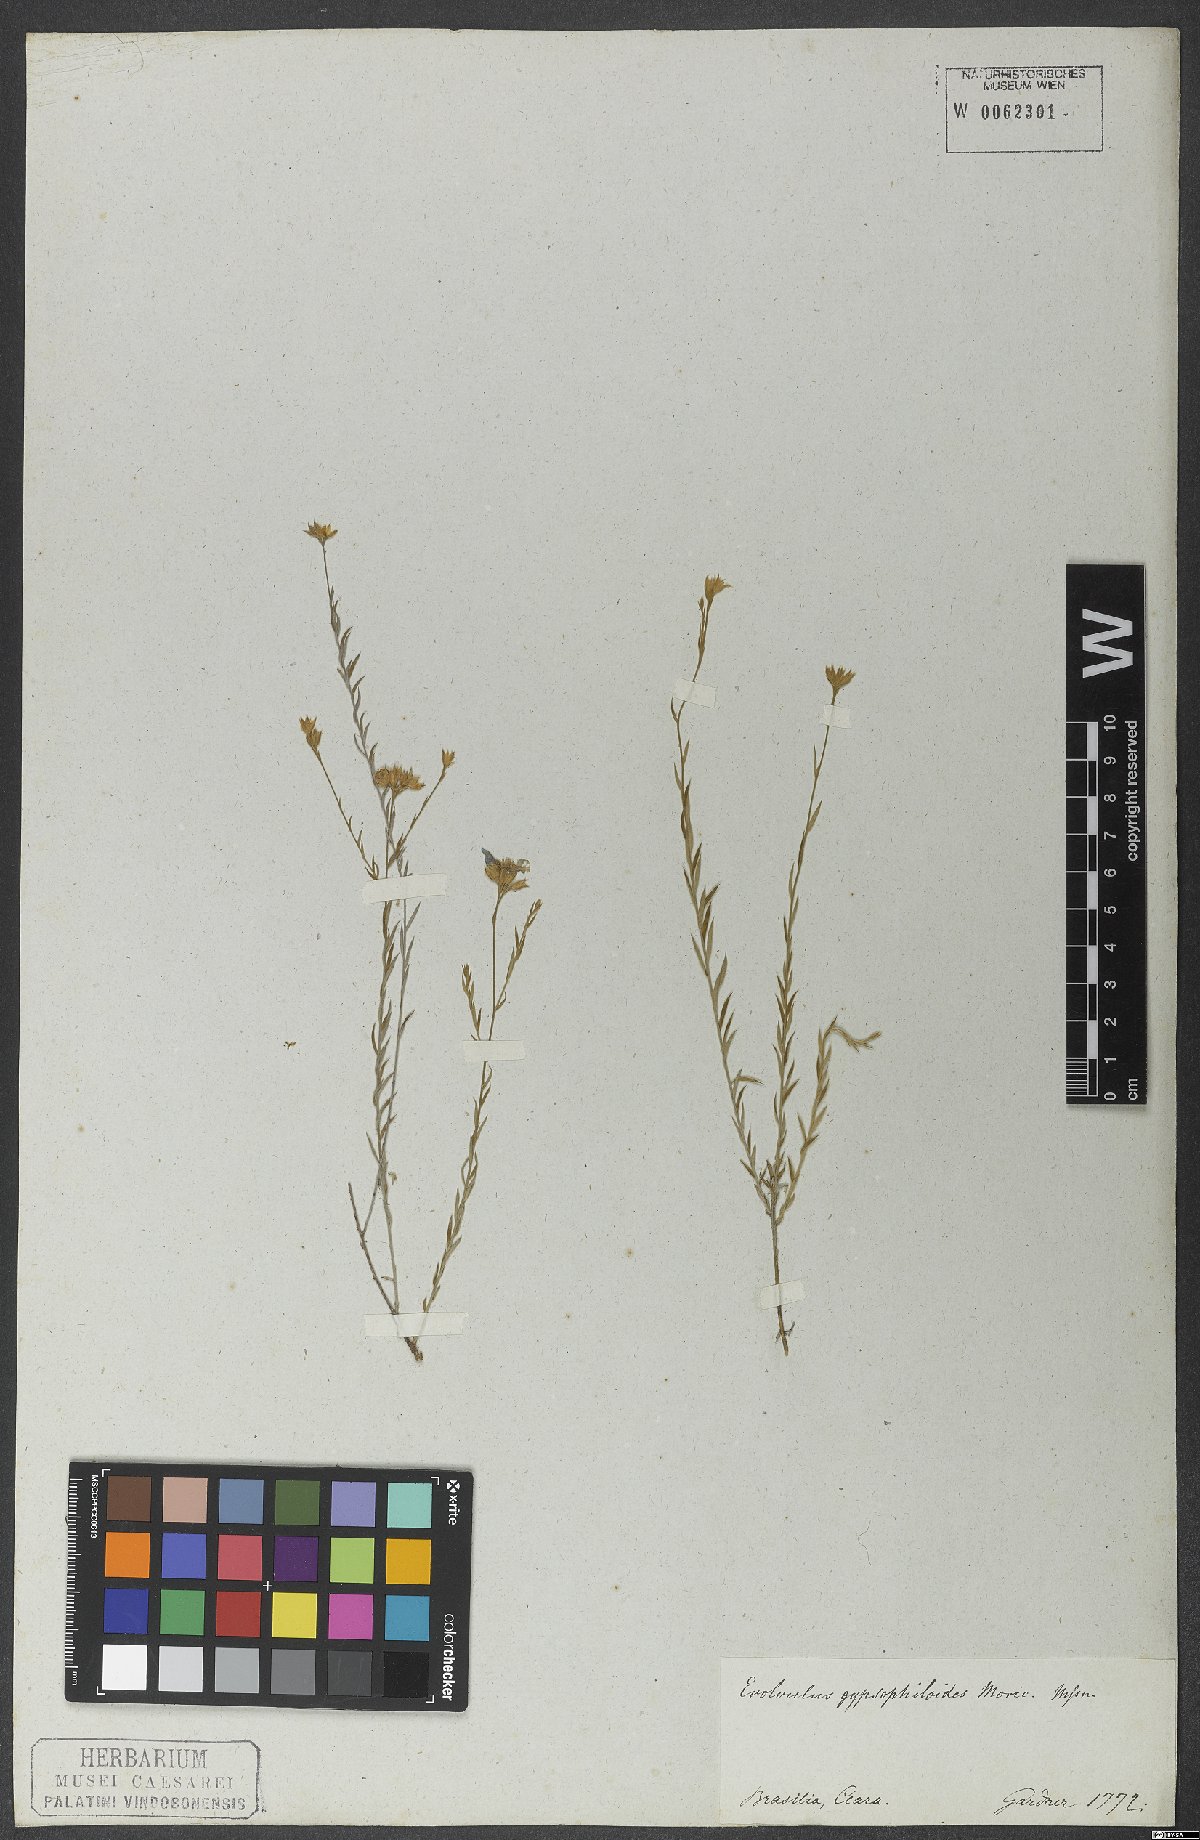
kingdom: Plantae
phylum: Tracheophyta
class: Magnoliopsida
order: Solanales
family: Convolvulaceae
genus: Evolvulus
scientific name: Evolvulus gypsophiloides
